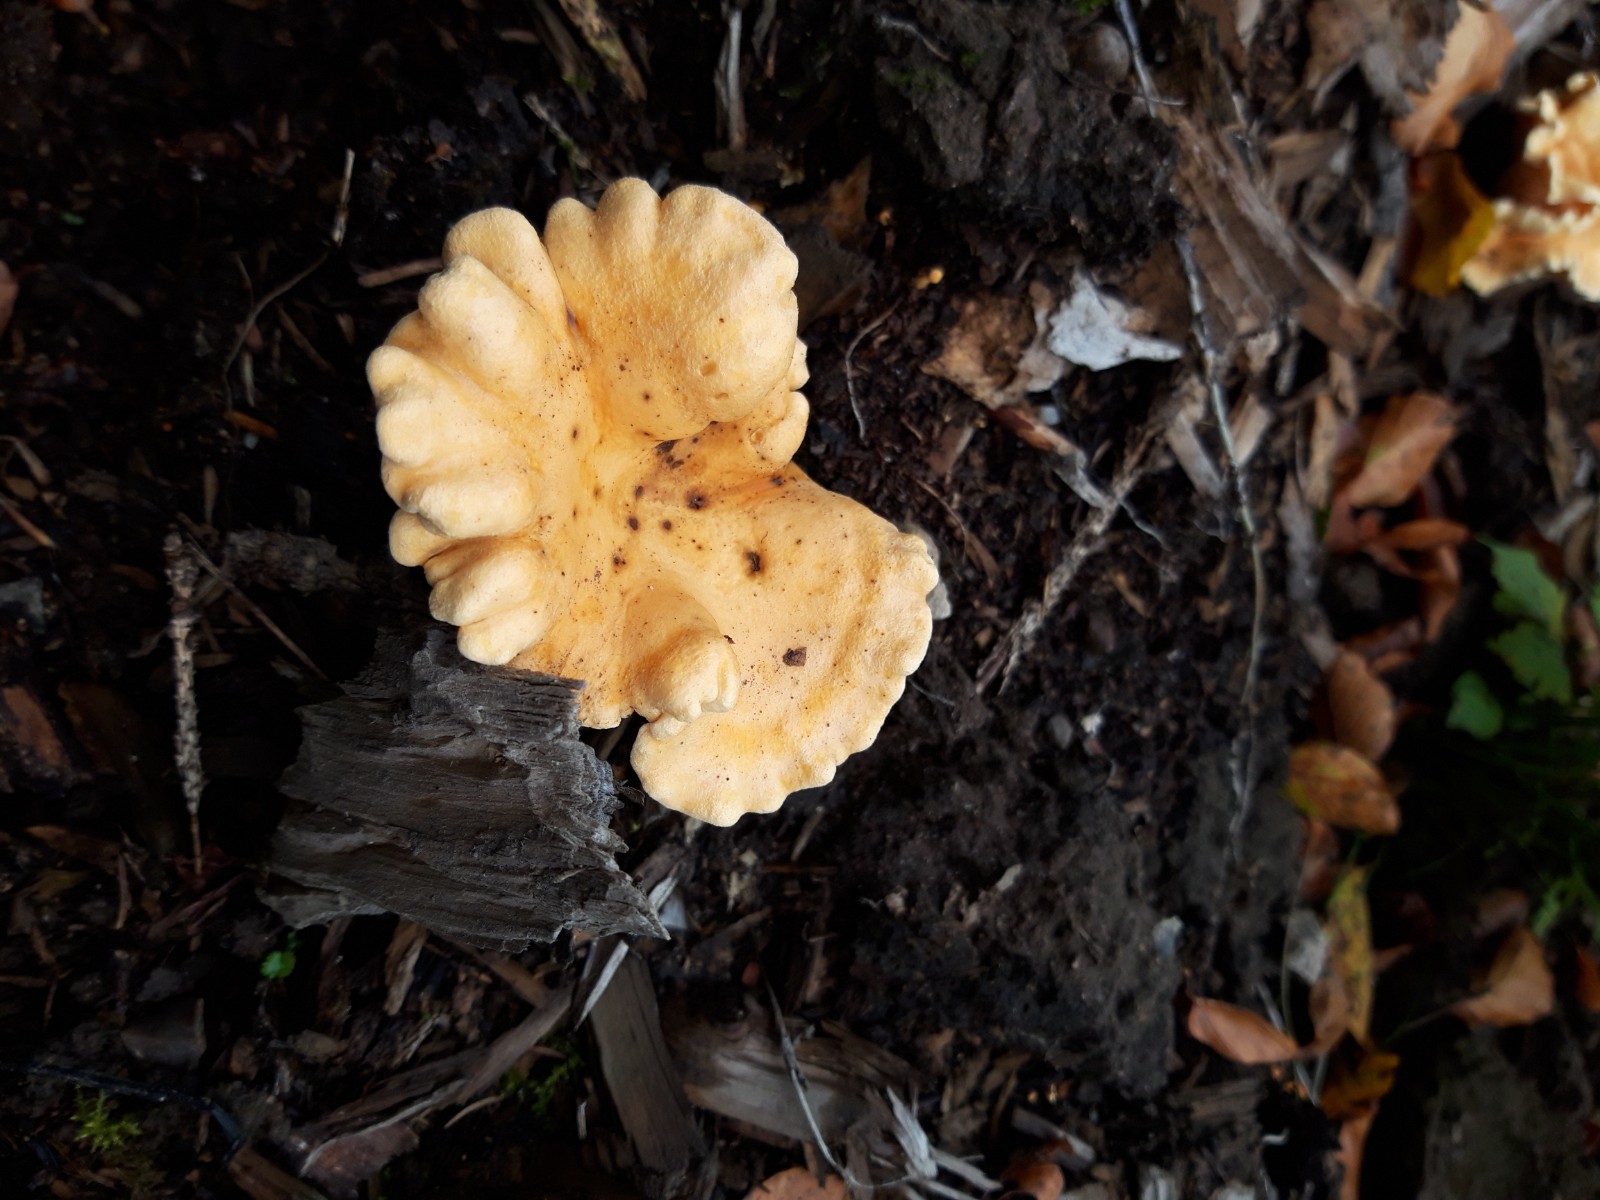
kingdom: Fungi
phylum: Basidiomycota
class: Agaricomycetes
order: Boletales
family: Hygrophoropsidaceae
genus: Hygrophoropsis
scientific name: Hygrophoropsis aurantiaca
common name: almindelig orangekantarel
